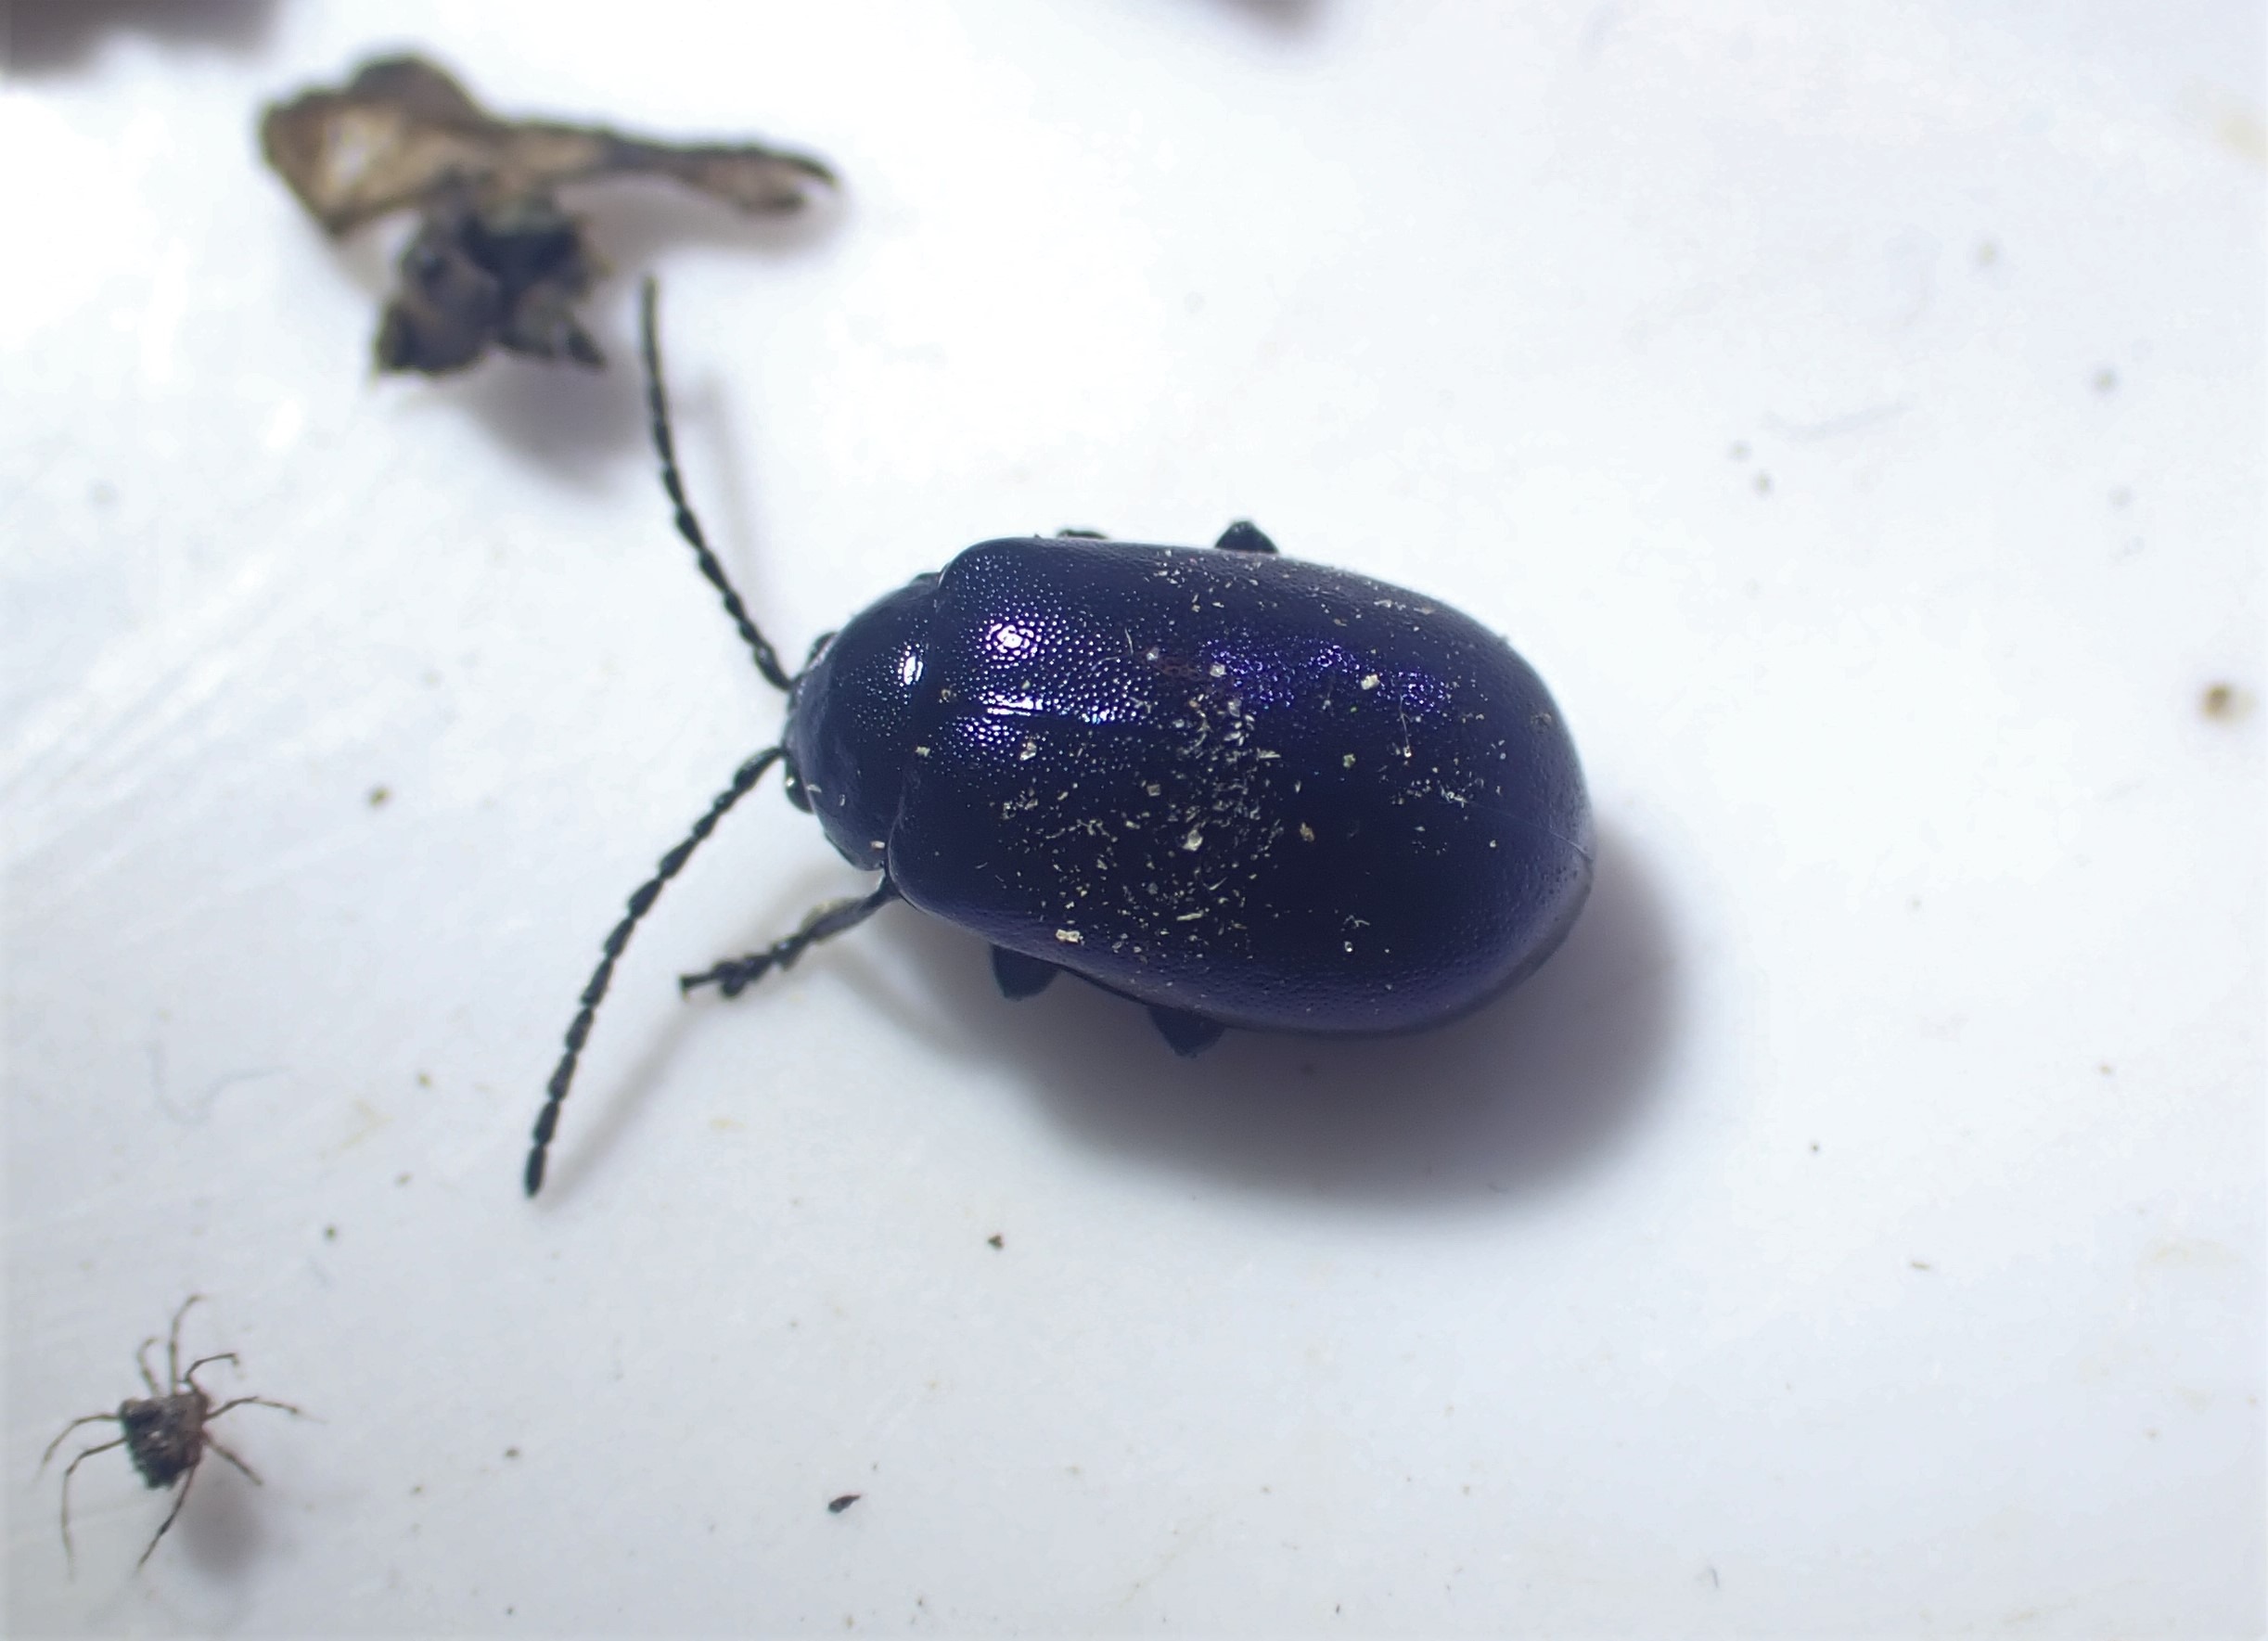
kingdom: Animalia
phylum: Arthropoda
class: Insecta
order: Coleoptera
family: Chrysomelidae
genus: Agelastica
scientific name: Agelastica alni
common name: Ellebladbille
